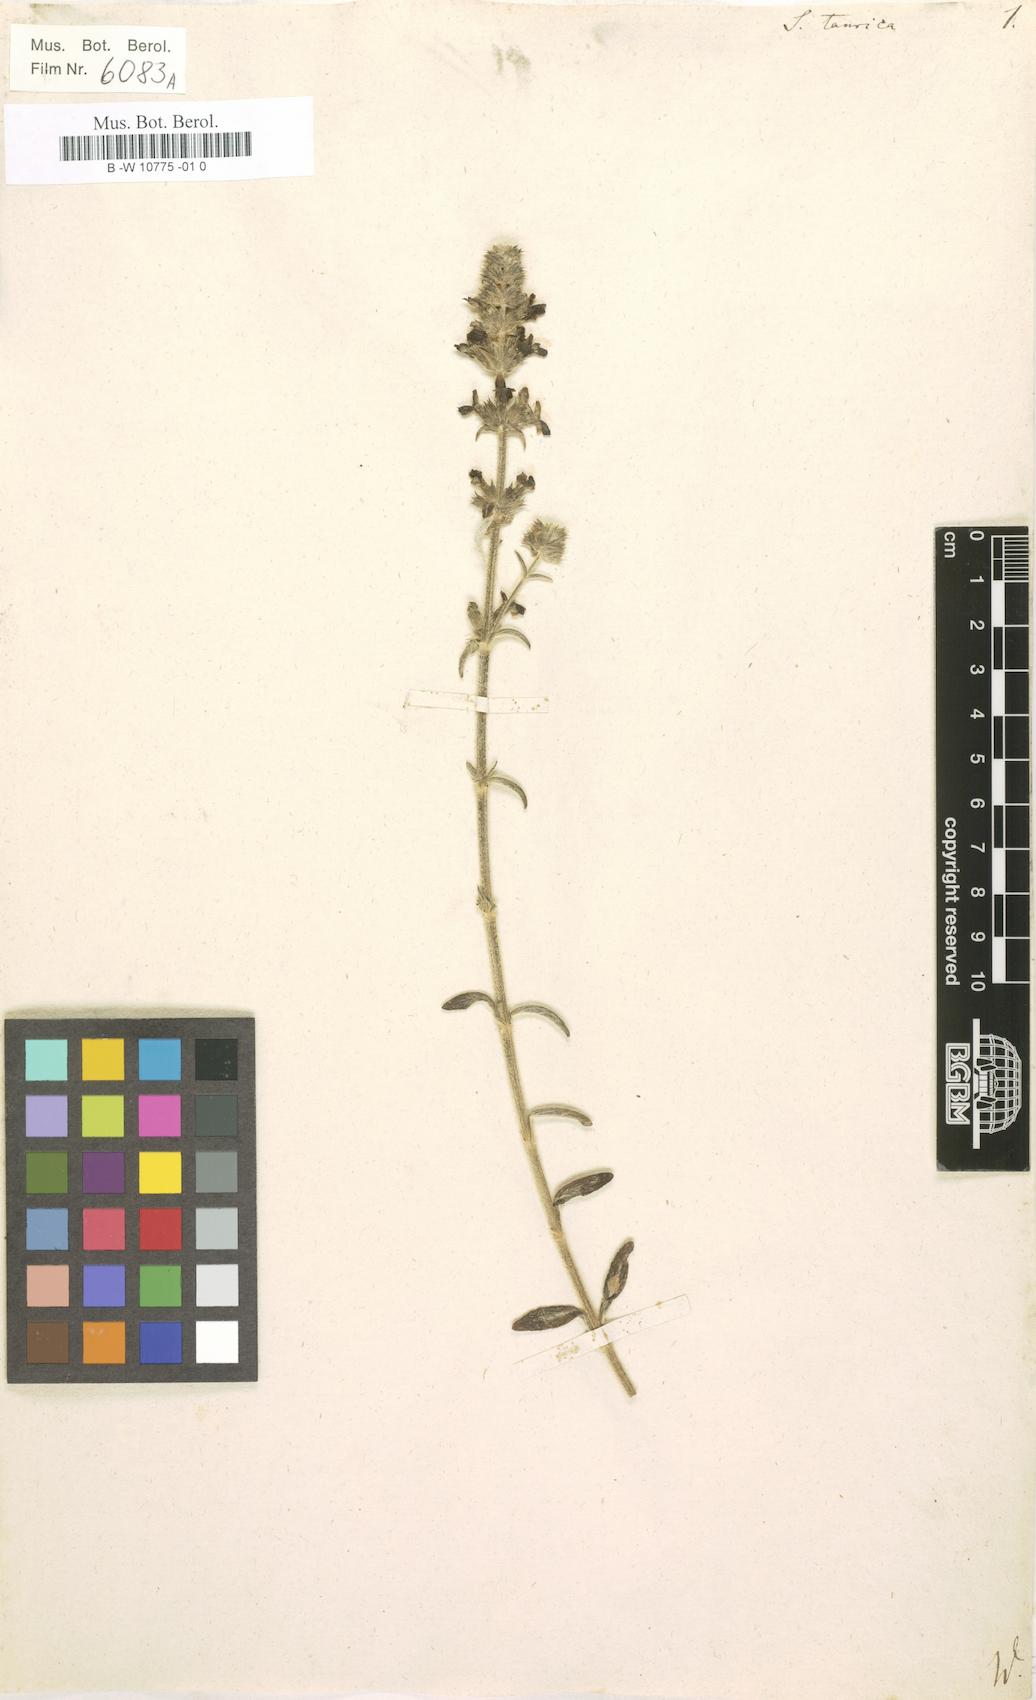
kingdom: Plantae
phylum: Tracheophyta
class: Magnoliopsida
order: Lamiales
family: Lamiaceae
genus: Sideritis
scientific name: Sideritis taurica
